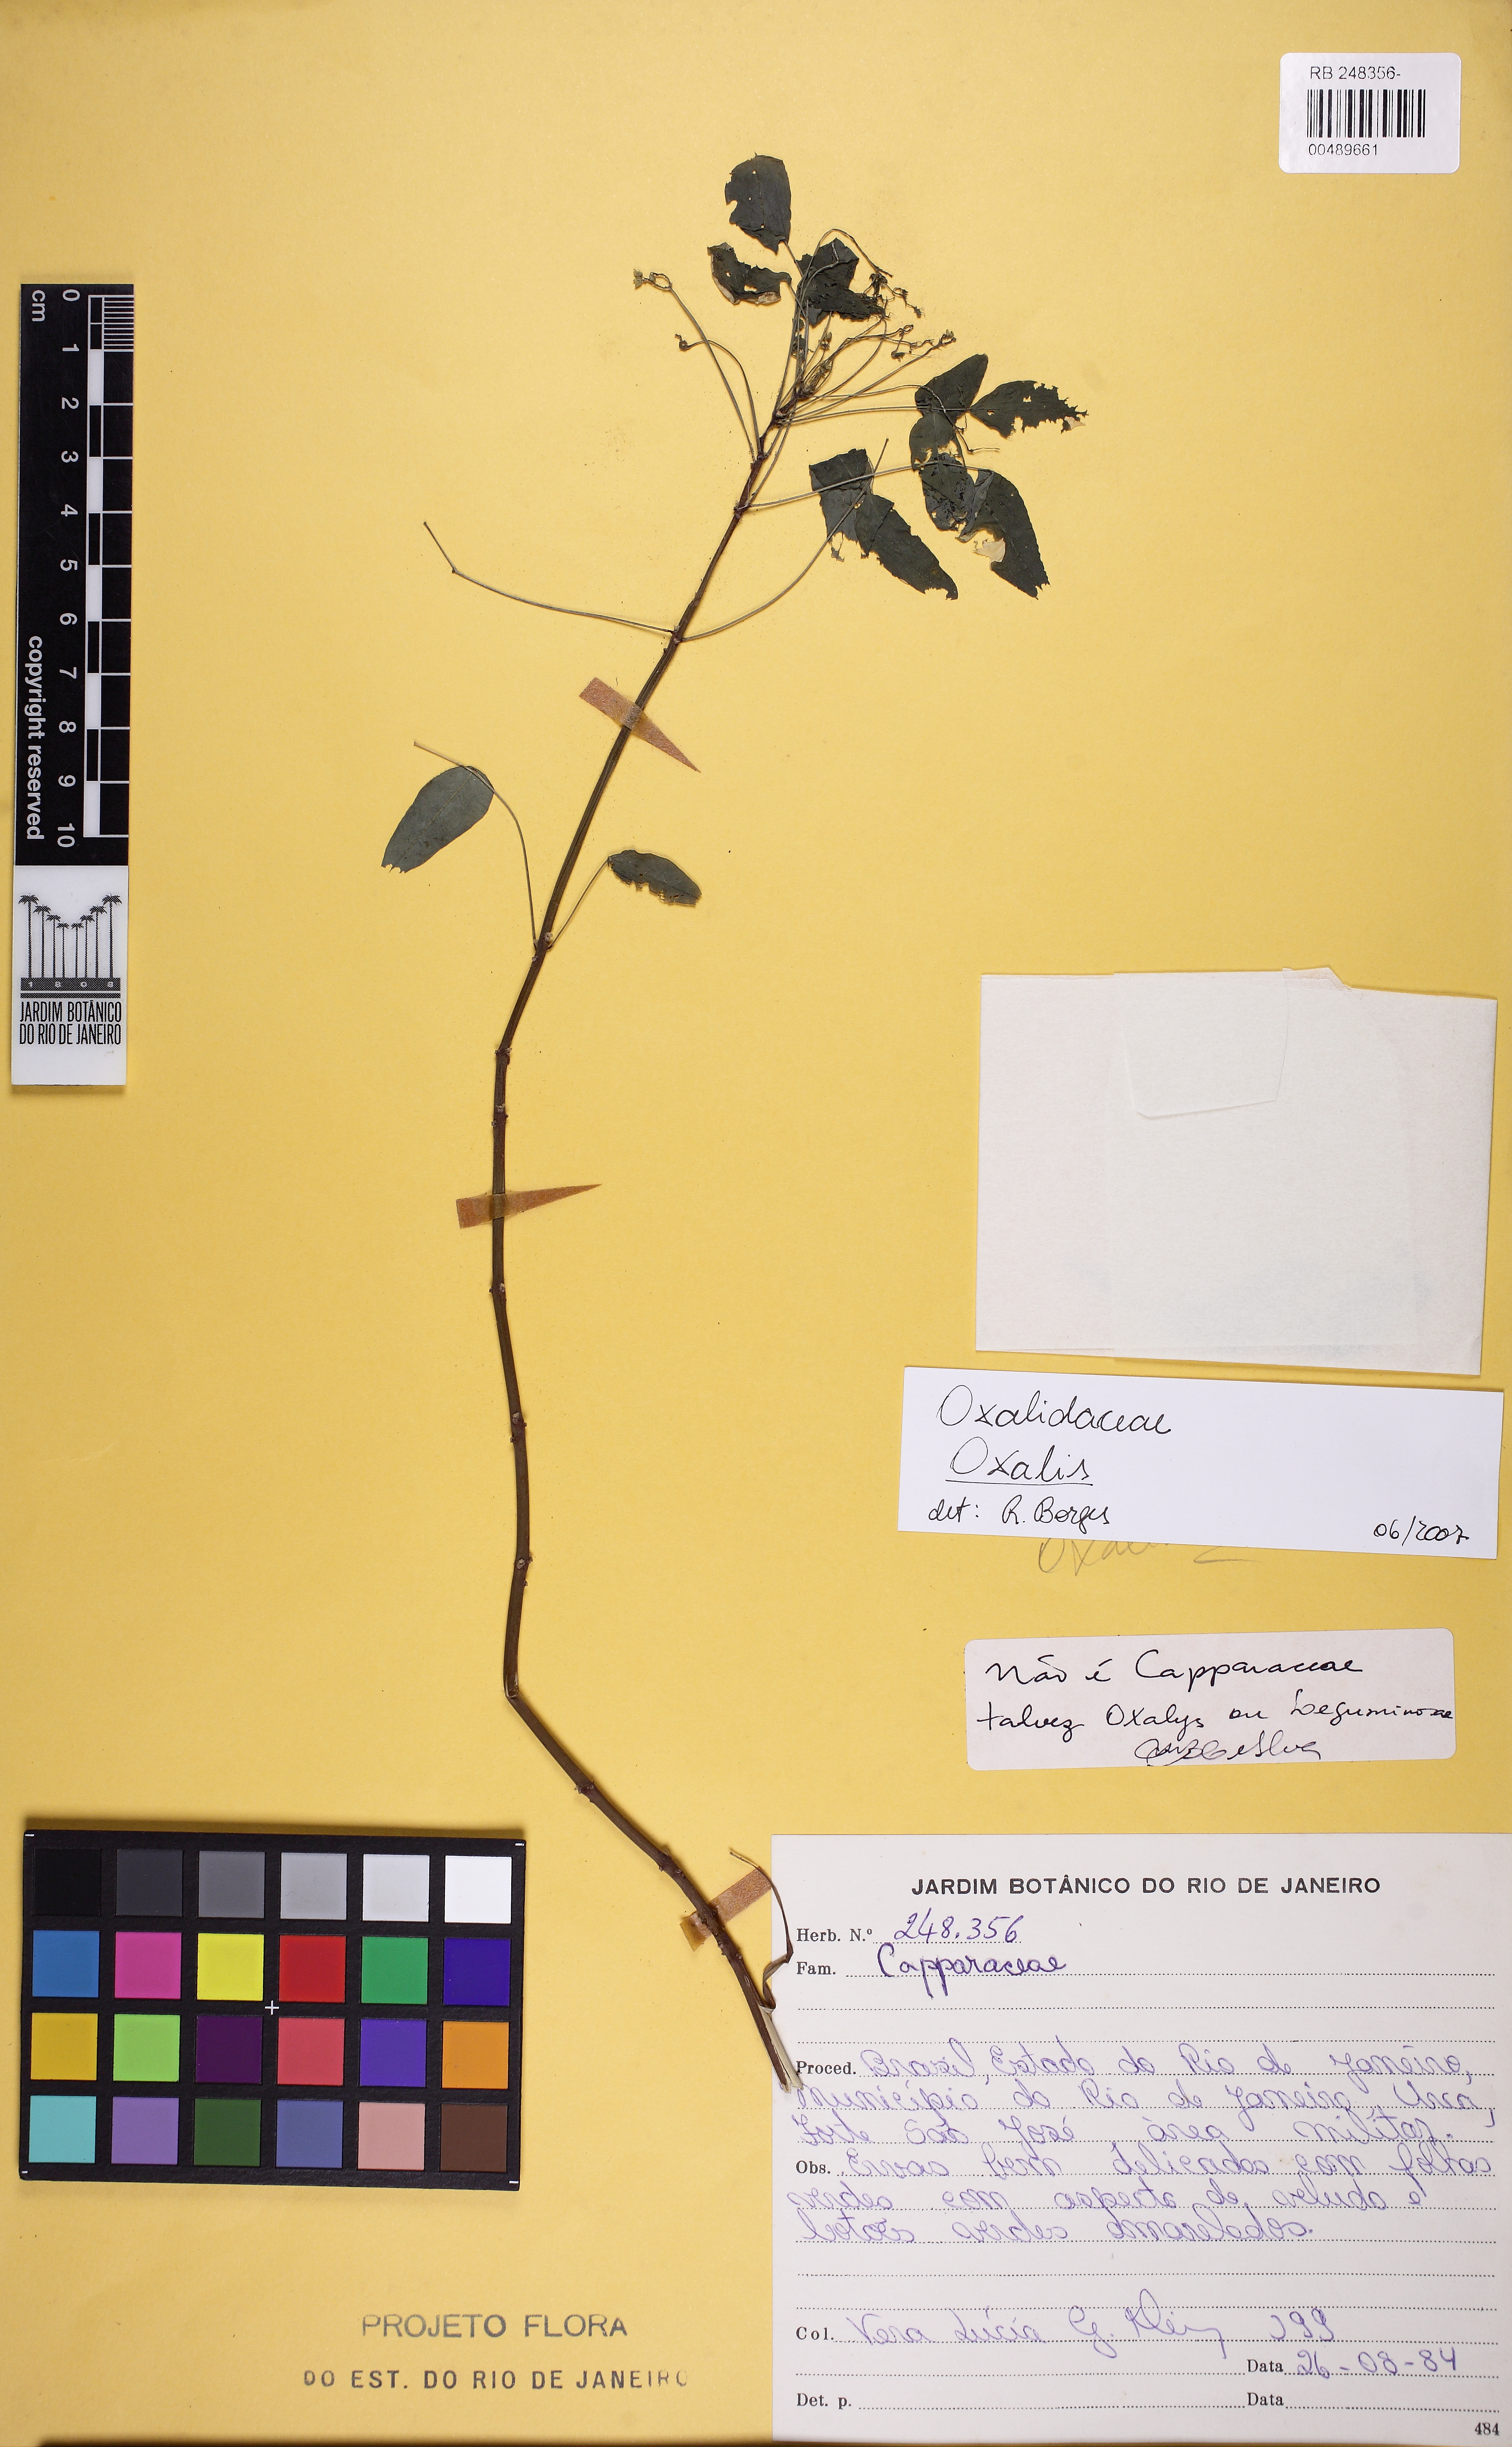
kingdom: Plantae
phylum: Tracheophyta
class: Magnoliopsida
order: Oxalidales
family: Oxalidaceae
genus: Oxalis
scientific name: Oxalis frutescens
